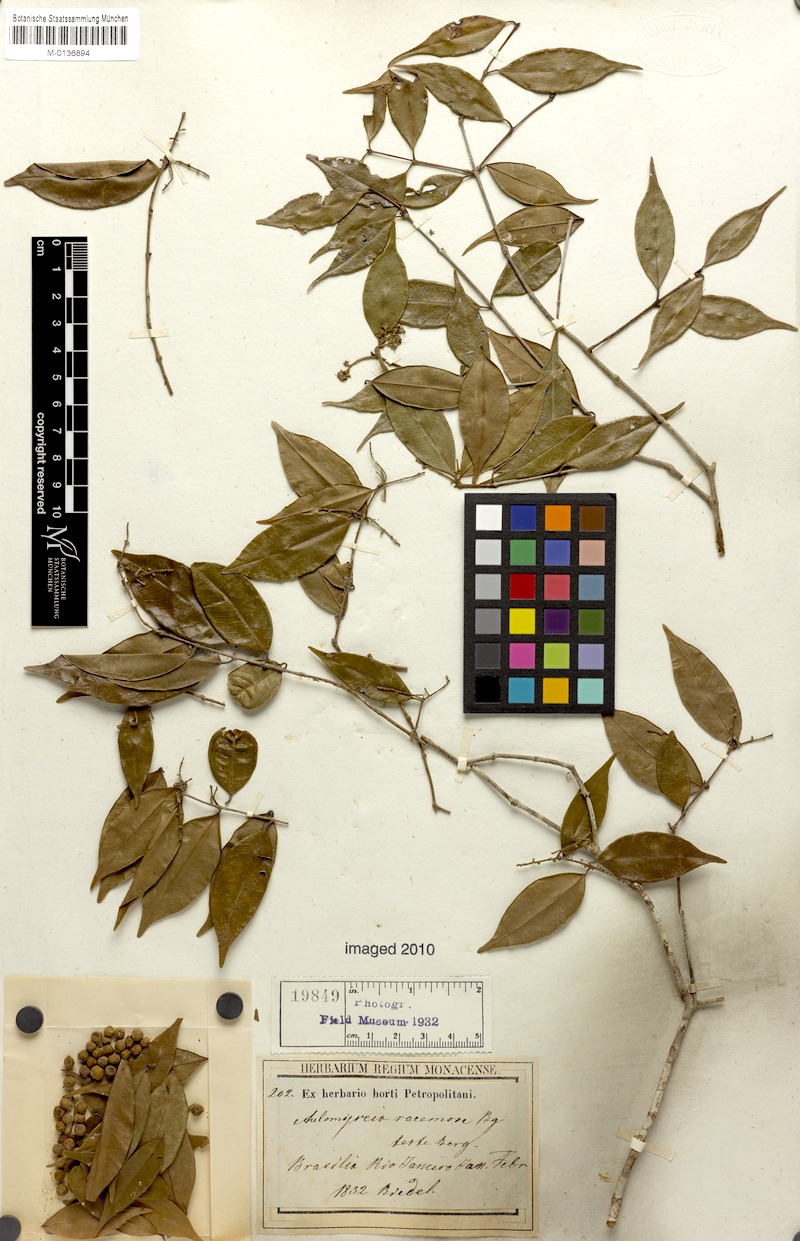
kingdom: Plantae
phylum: Tracheophyta
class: Magnoliopsida
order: Myrtales
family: Myrtaceae
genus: Myrcia
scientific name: Myrcia racemosa
